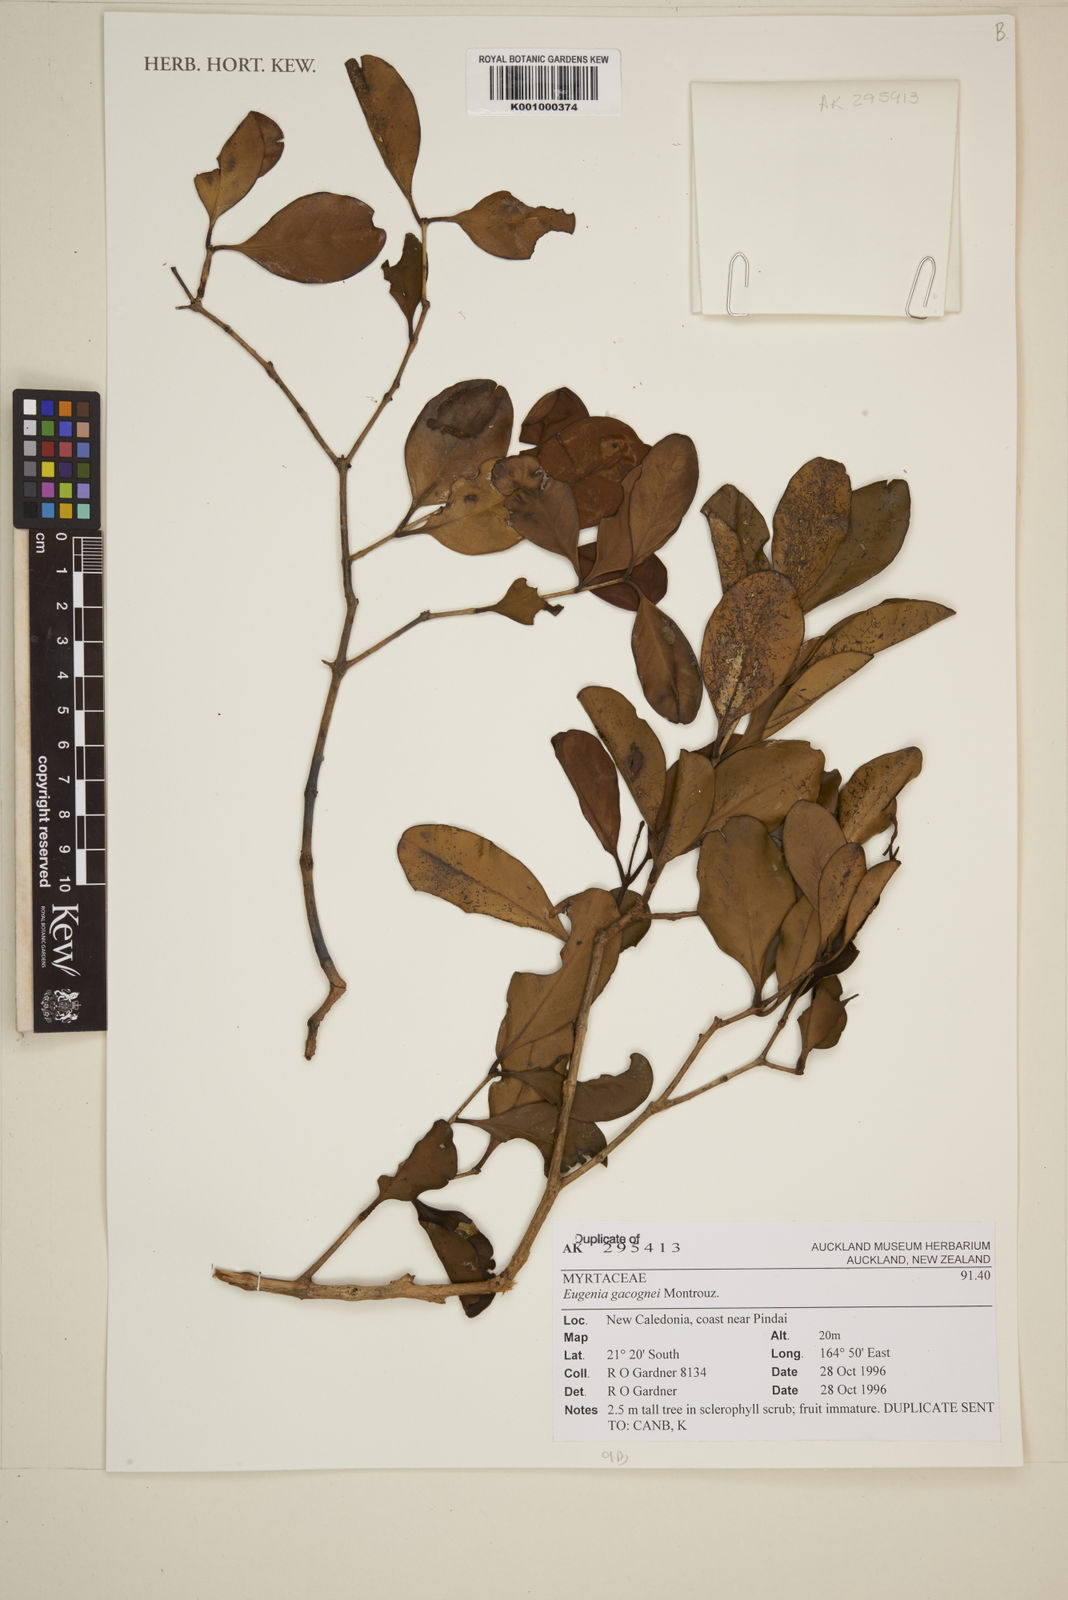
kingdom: Plantae
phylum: Tracheophyta
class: Magnoliopsida
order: Myrtales
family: Myrtaceae
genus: Eugenia
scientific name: Eugenia gacognei
